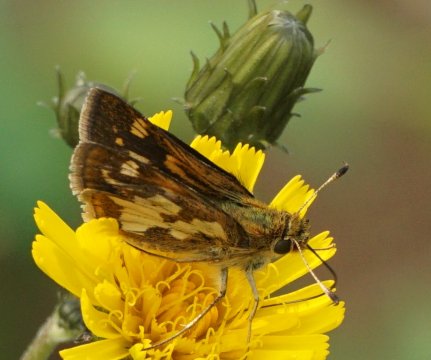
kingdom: Animalia
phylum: Arthropoda
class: Insecta
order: Lepidoptera
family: Hesperiidae
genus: Polites
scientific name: Polites coras
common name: Peck's Skipper
